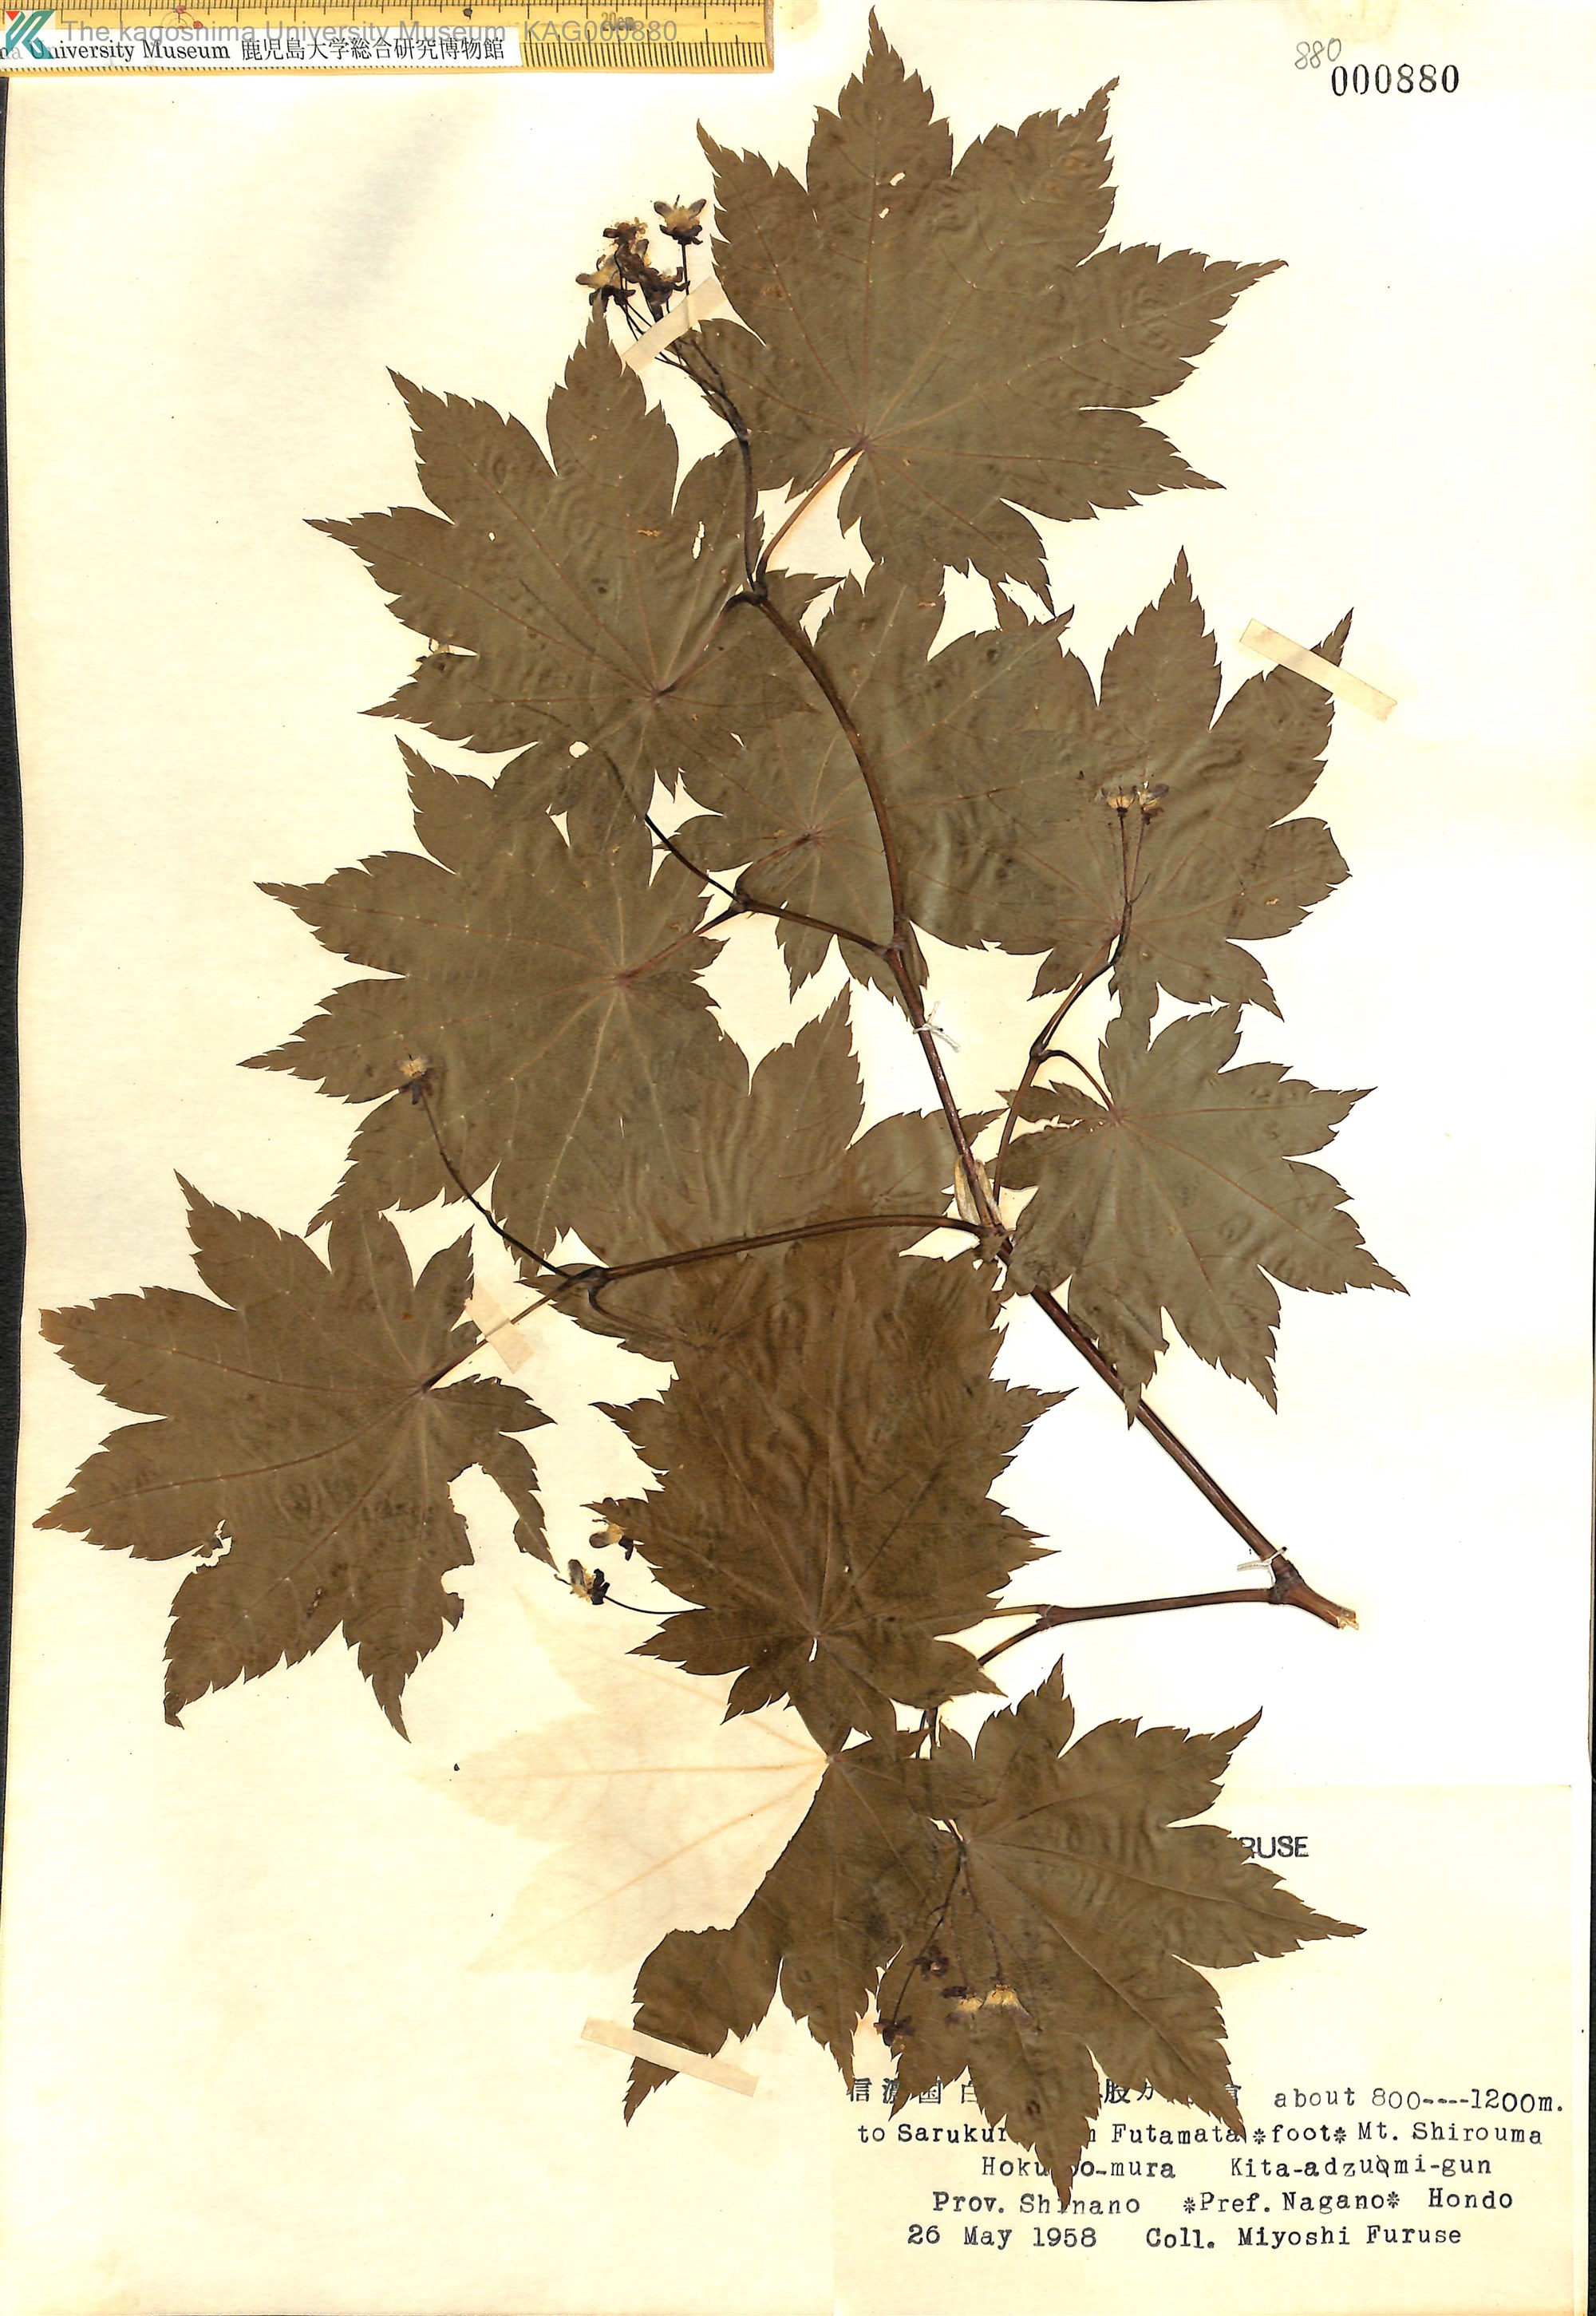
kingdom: Plantae
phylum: Tracheophyta
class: Magnoliopsida
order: Sapindales
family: Sapindaceae
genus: Acer
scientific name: Acer japonicum
